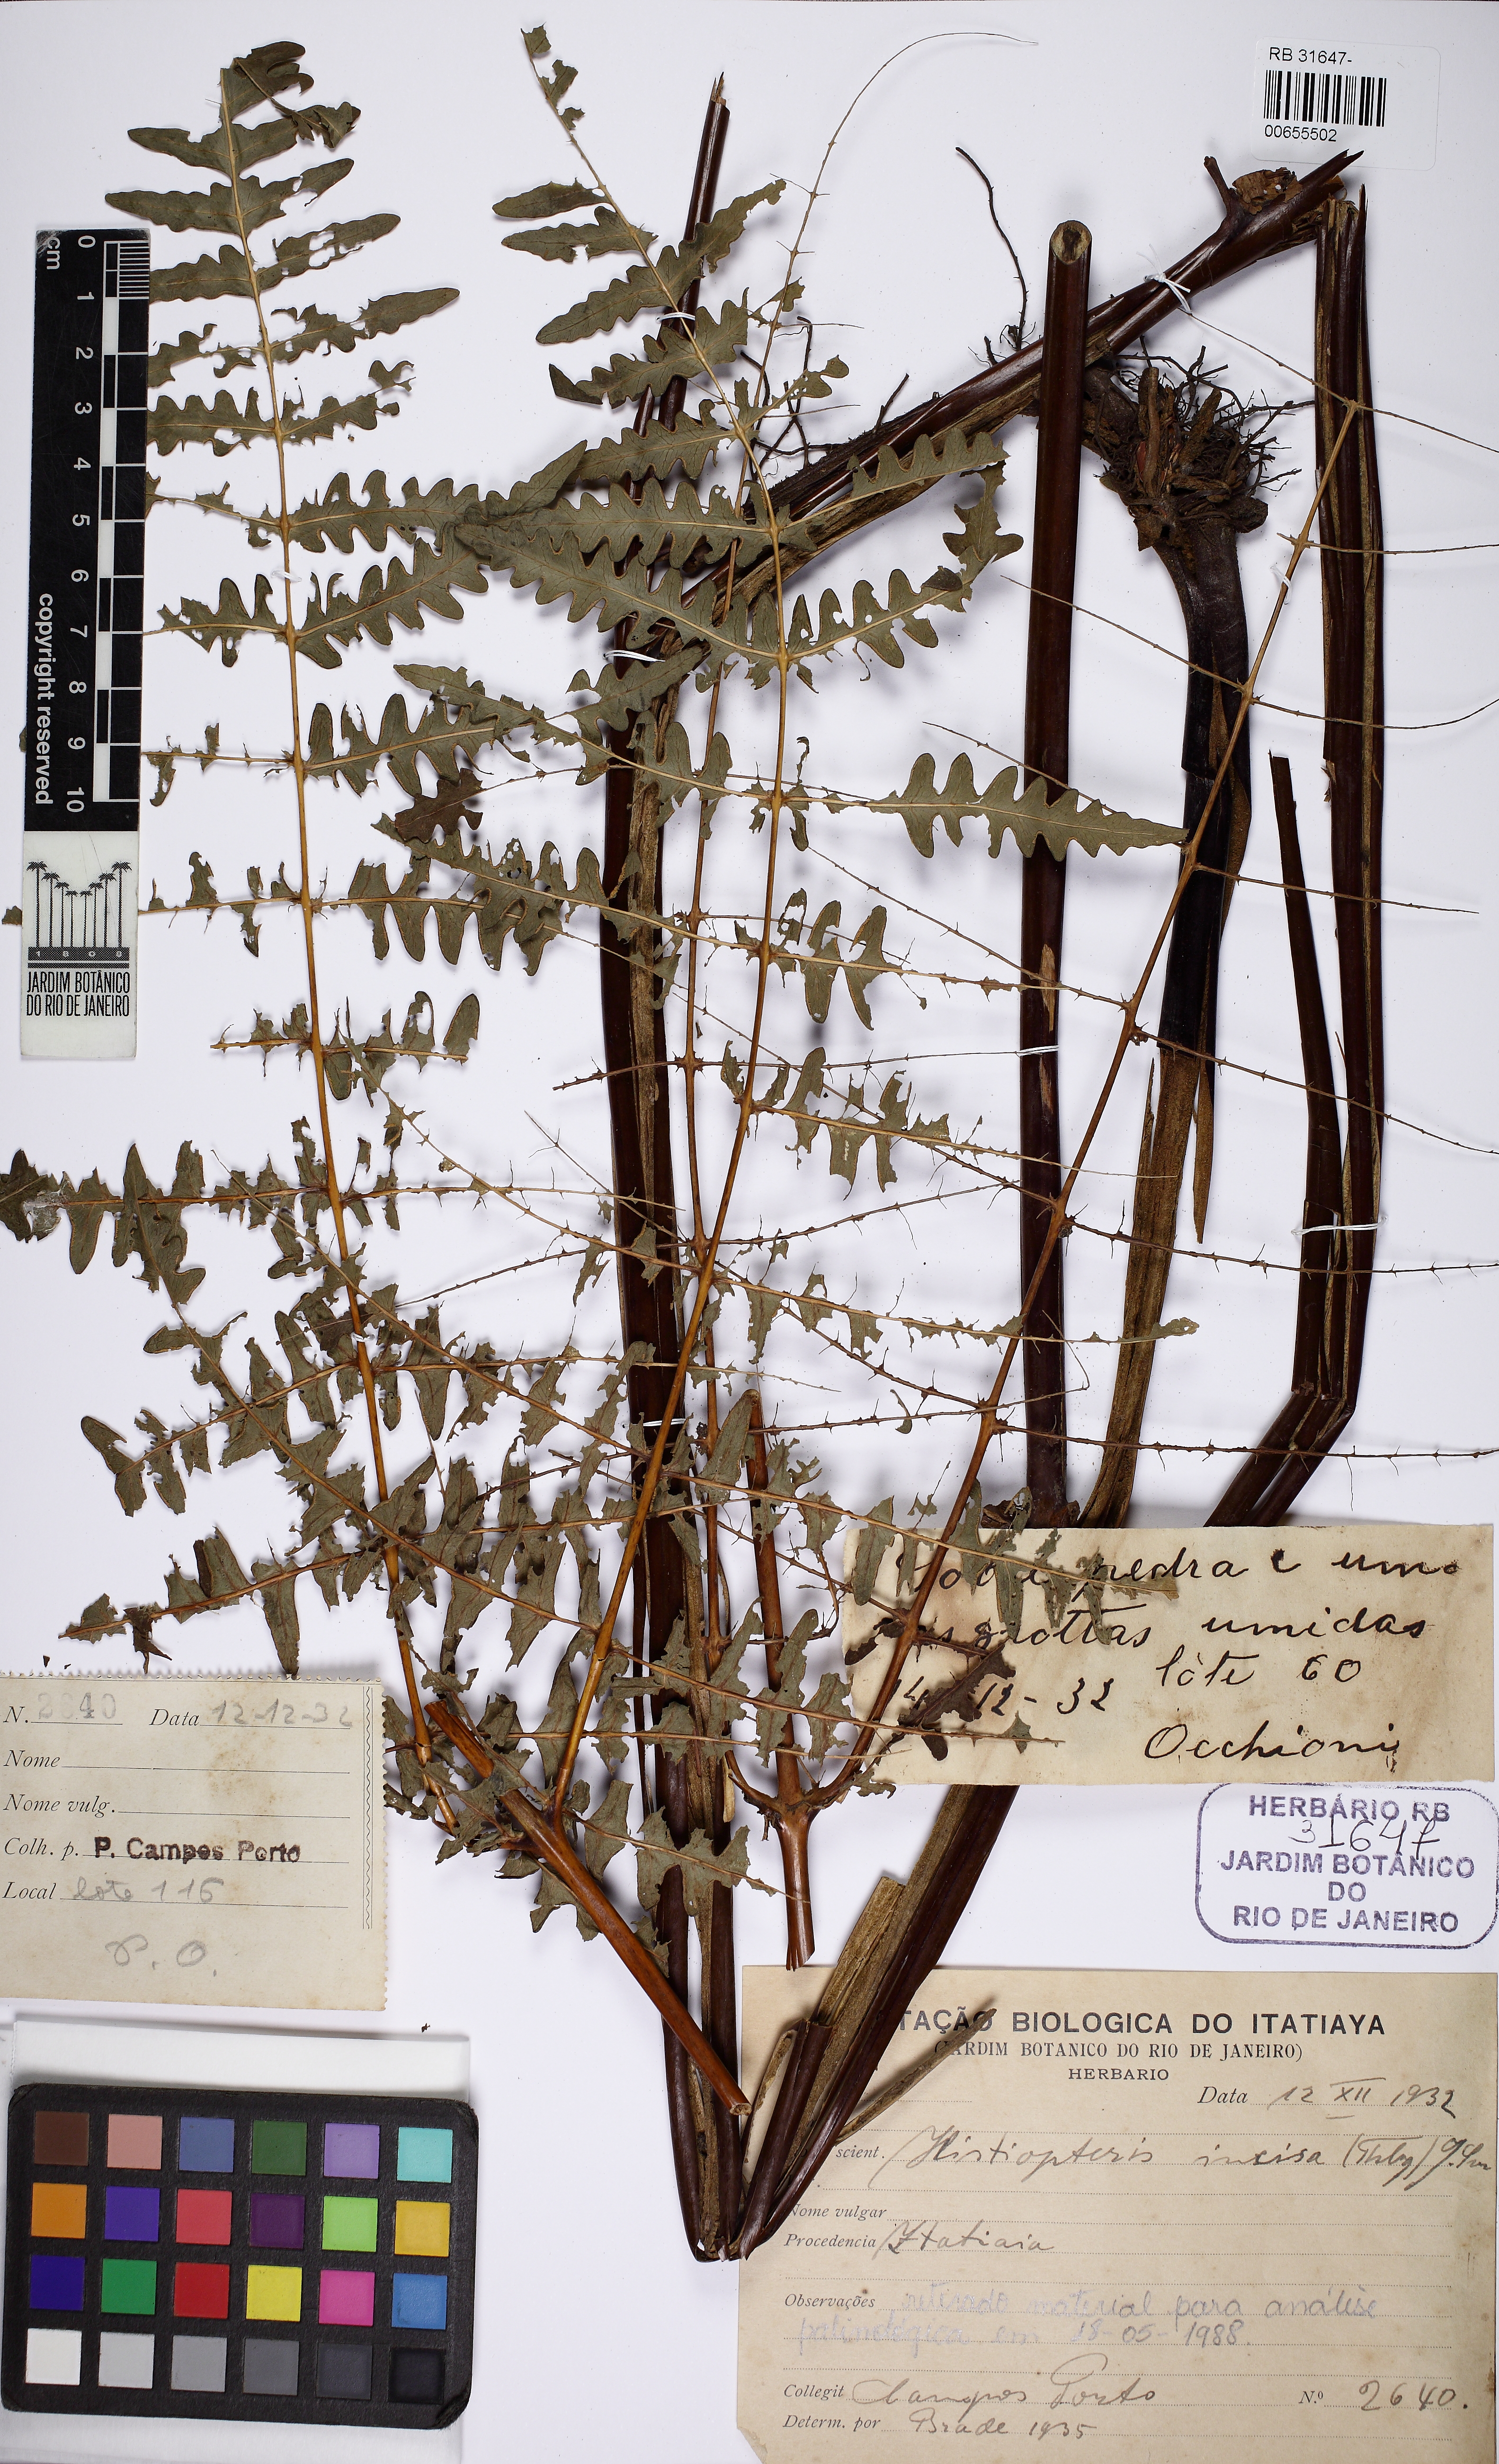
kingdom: Plantae
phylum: Tracheophyta
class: Polypodiopsida
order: Polypodiales
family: Dennstaedtiaceae
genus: Hypolepis
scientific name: Hypolepis polypodioides
